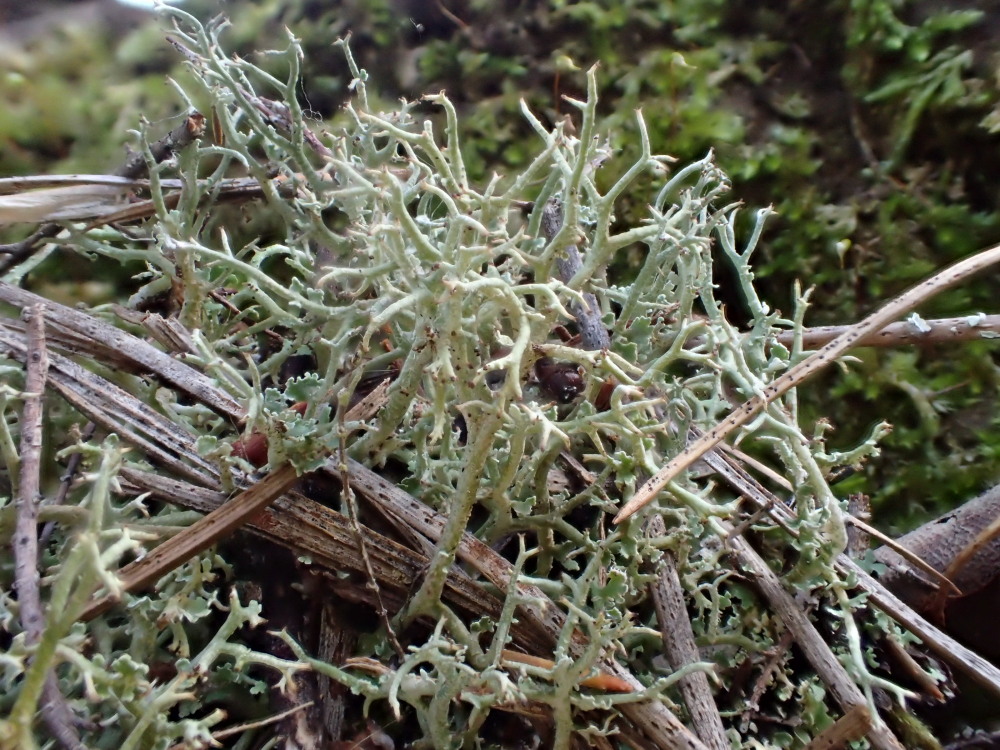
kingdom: Fungi
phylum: Ascomycota
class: Lecanoromycetes
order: Lecanorales
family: Cladoniaceae
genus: Cladonia
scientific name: Cladonia furcata
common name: kløftet bægerlav
